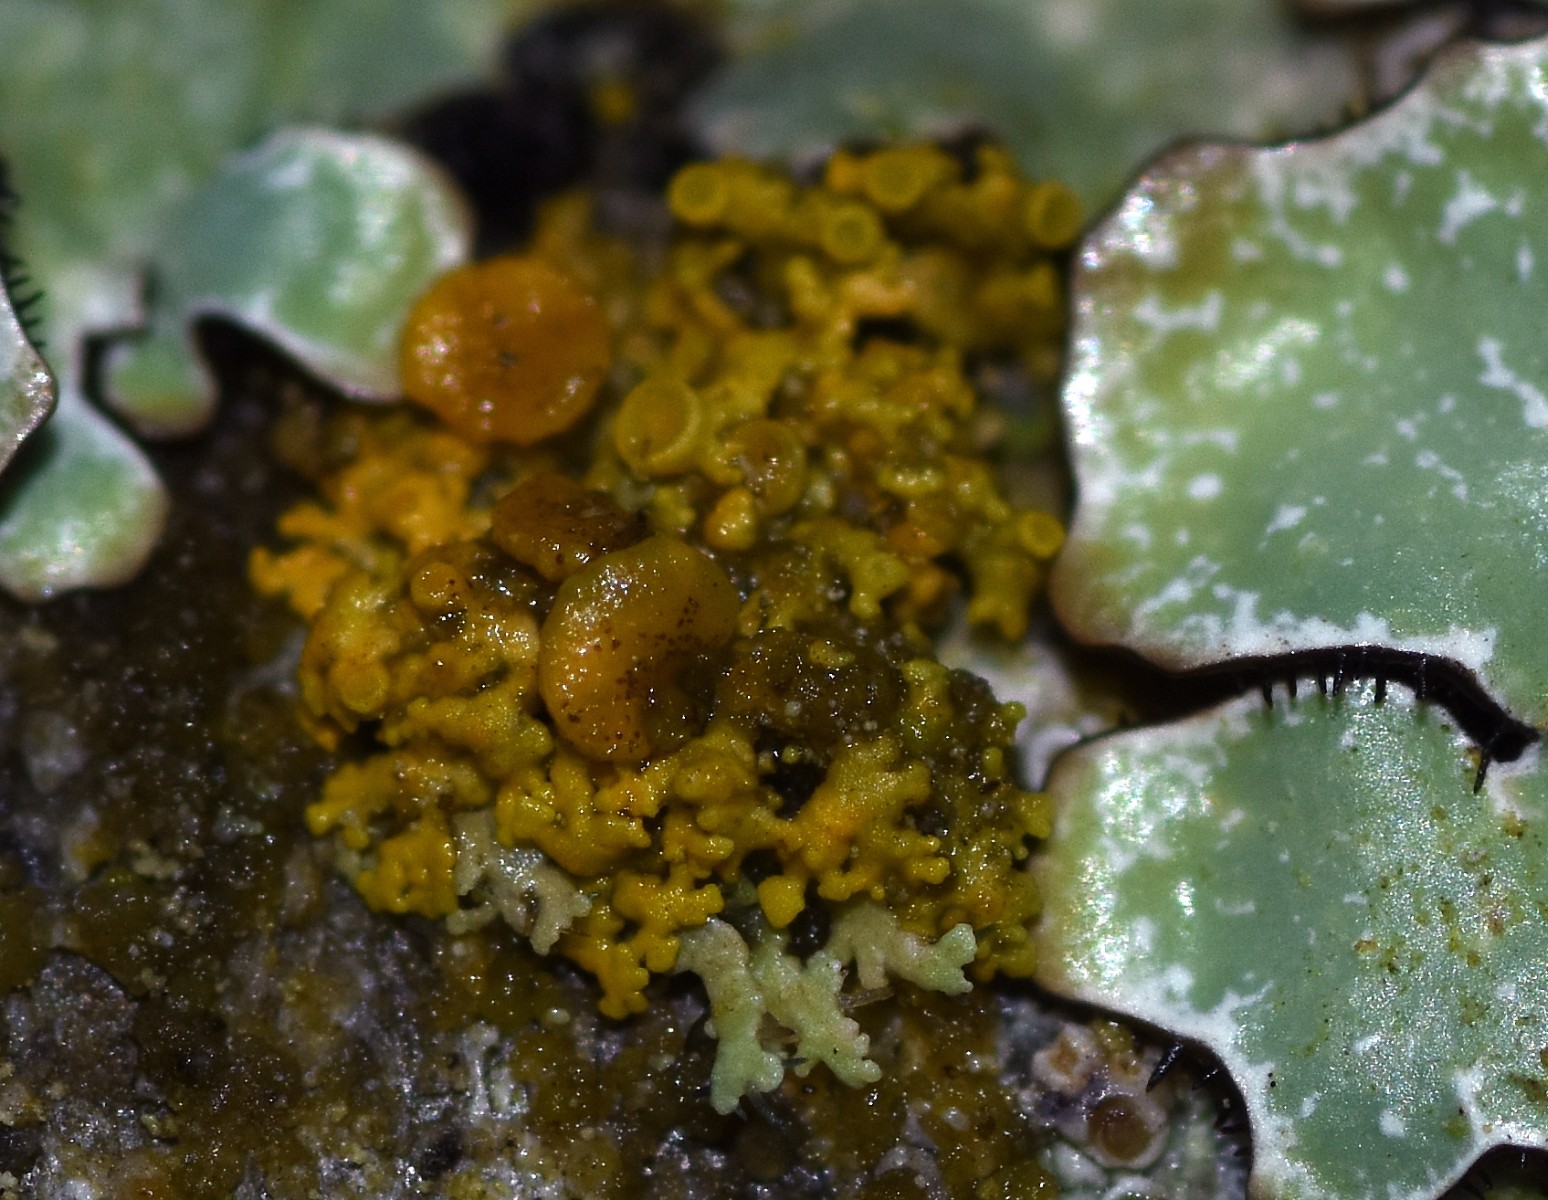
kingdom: Fungi
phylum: Ascomycota
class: Lecanoromycetes
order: Teloschistales
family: Teloschistaceae
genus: Polycauliona
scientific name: Polycauliona polycarpa
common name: mangefrugtet orangelav
